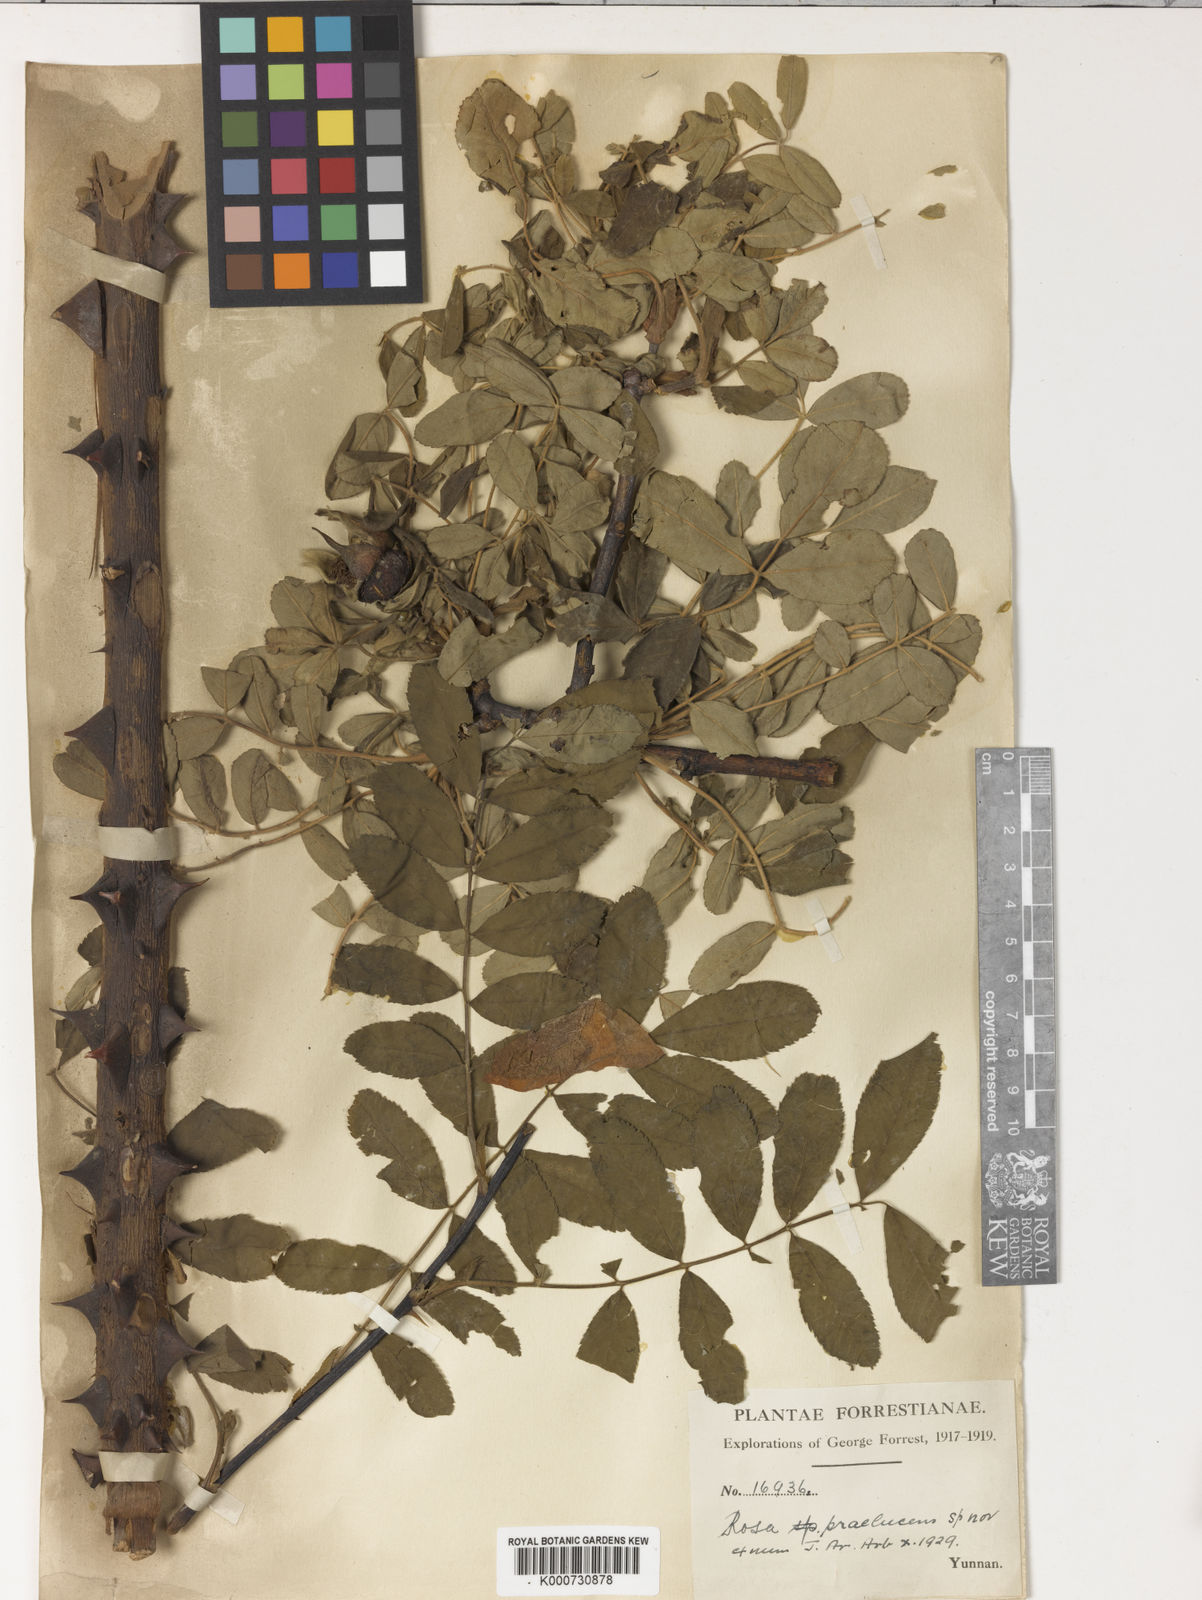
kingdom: Plantae
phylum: Tracheophyta
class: Magnoliopsida
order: Rosales
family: Rosaceae
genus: Rosa
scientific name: Rosa praelucens
